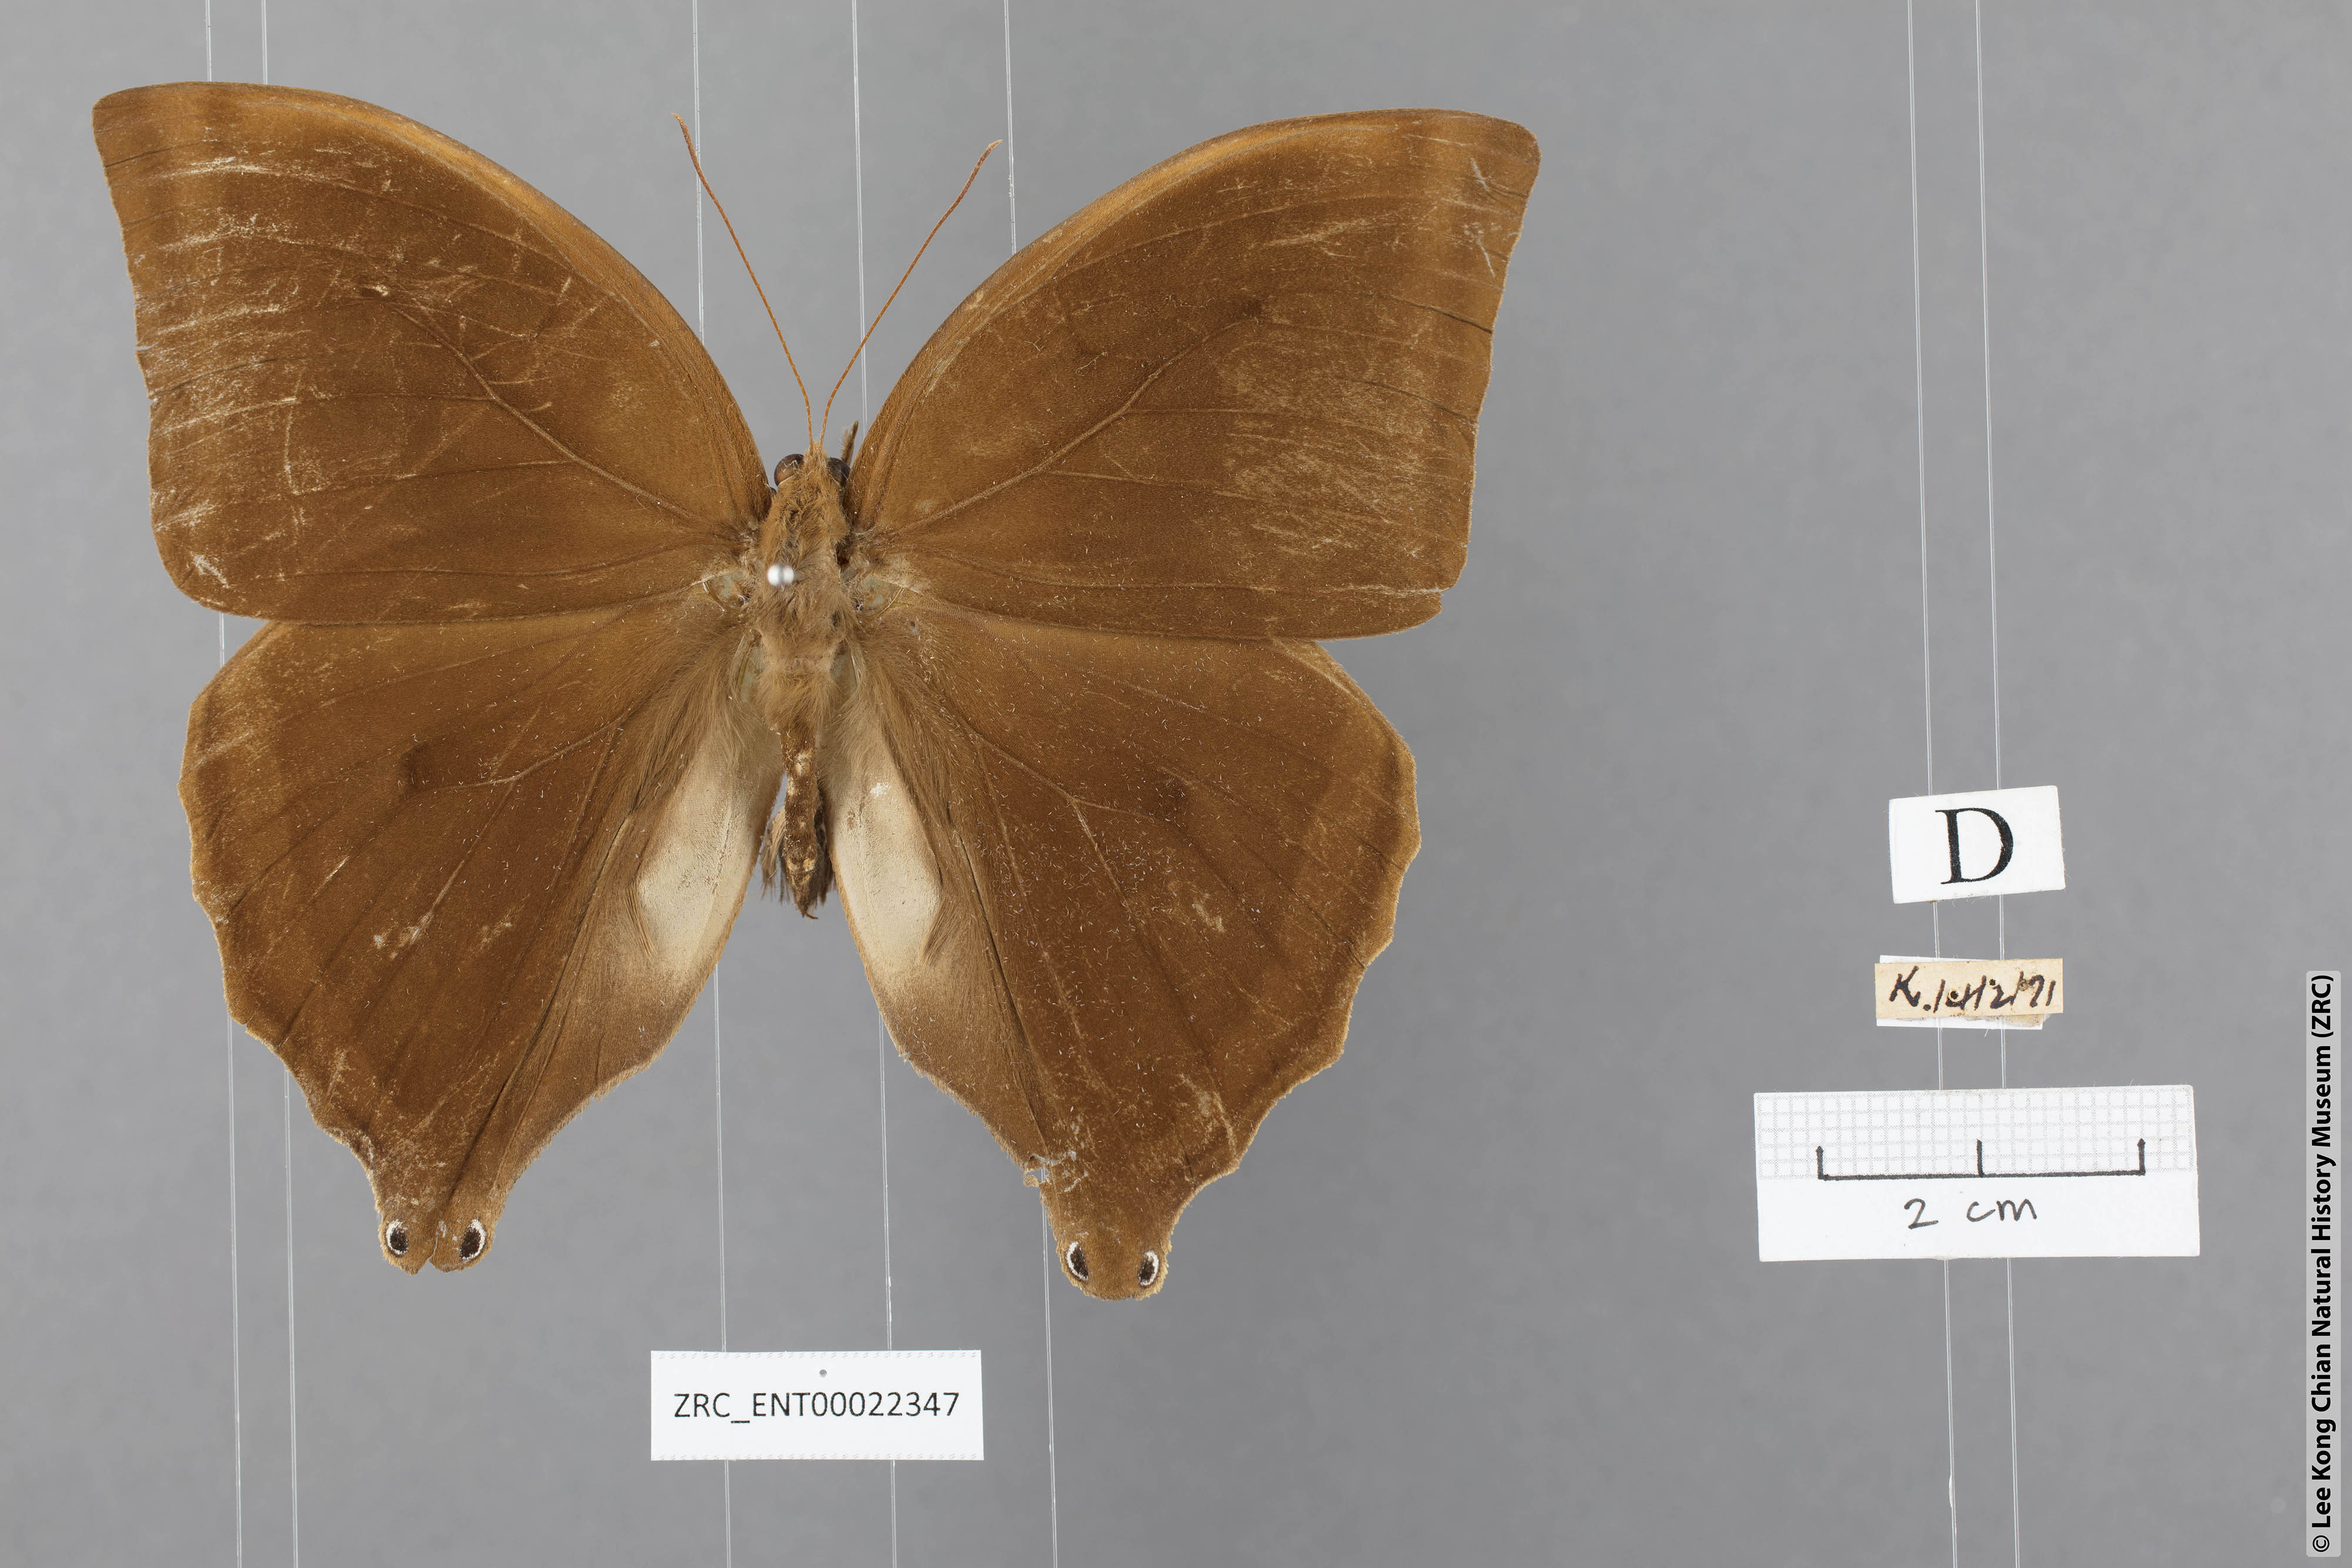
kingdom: Animalia
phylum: Arthropoda
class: Insecta
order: Lepidoptera
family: Nymphalidae
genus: Amathusia
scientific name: Amathusia phidippus
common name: Palm king
